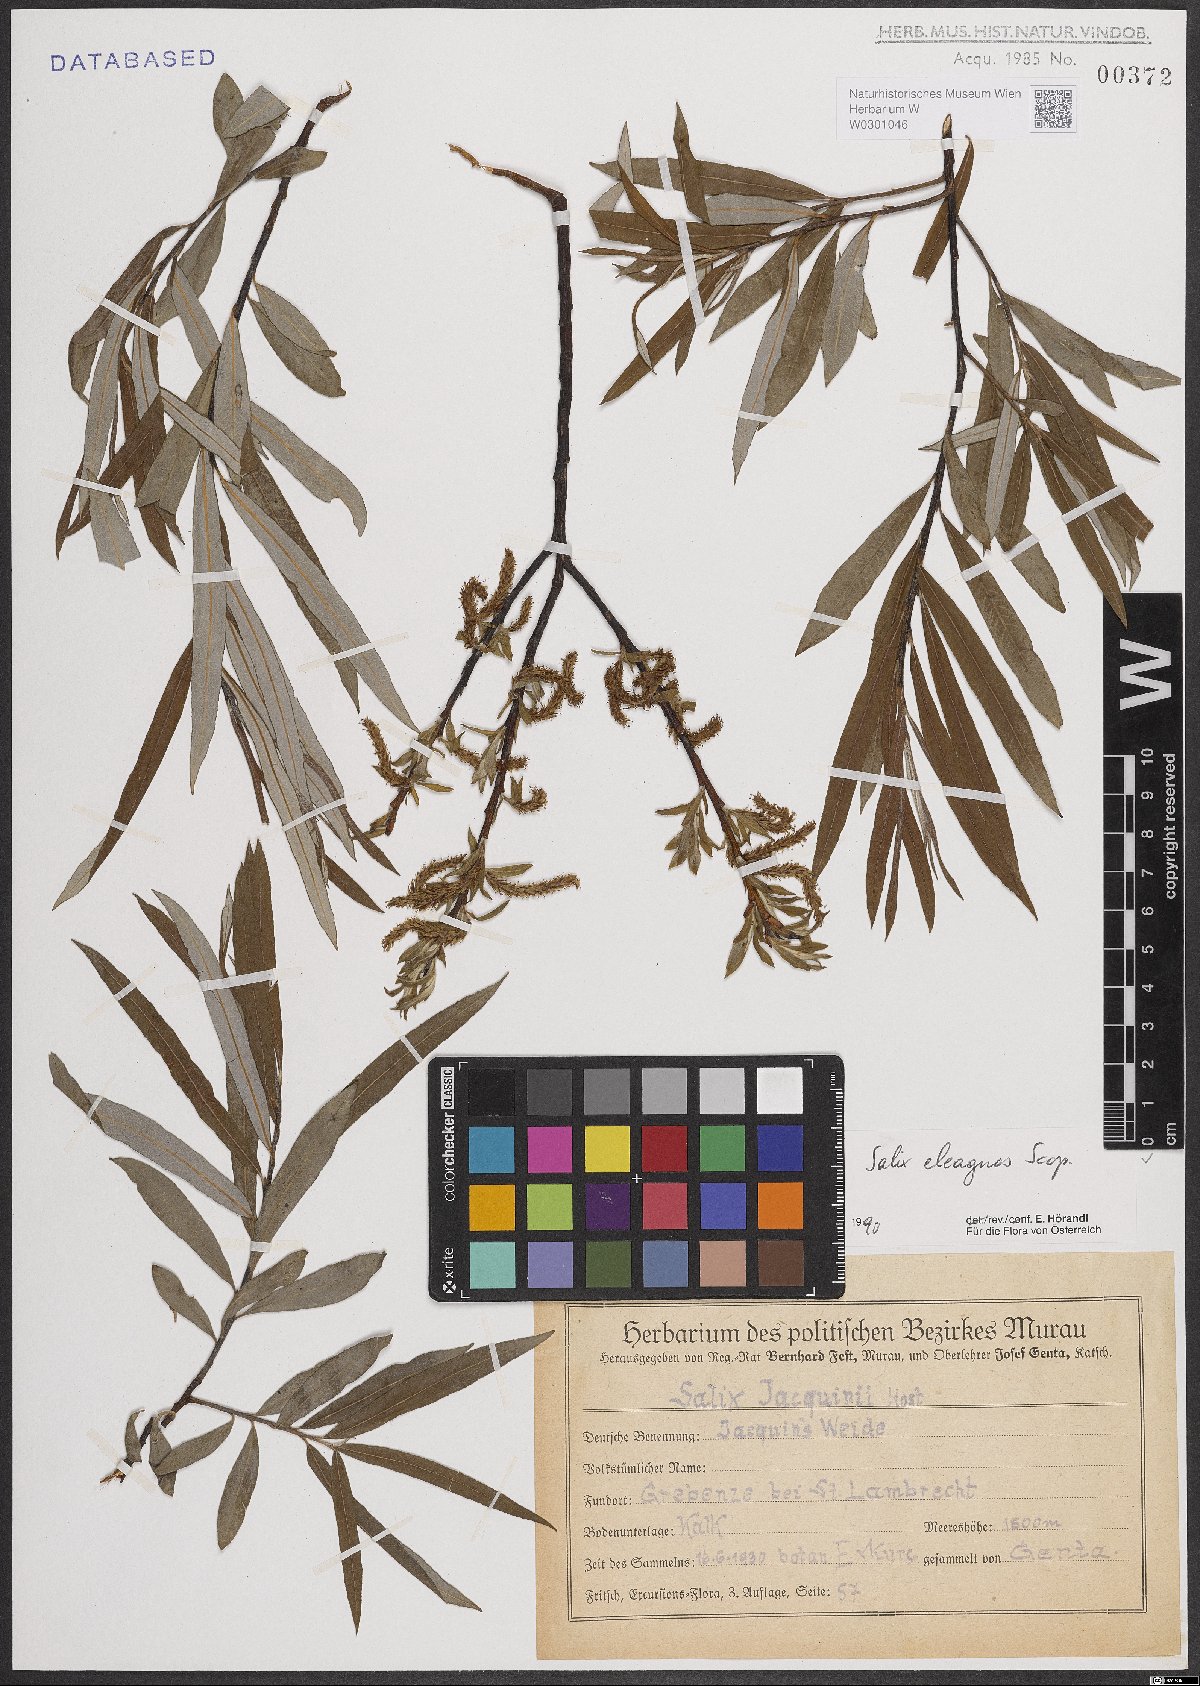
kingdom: Plantae
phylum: Tracheophyta
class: Magnoliopsida
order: Malpighiales
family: Salicaceae
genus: Salix
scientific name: Salix eleagnos
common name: Elaeagnus willow
